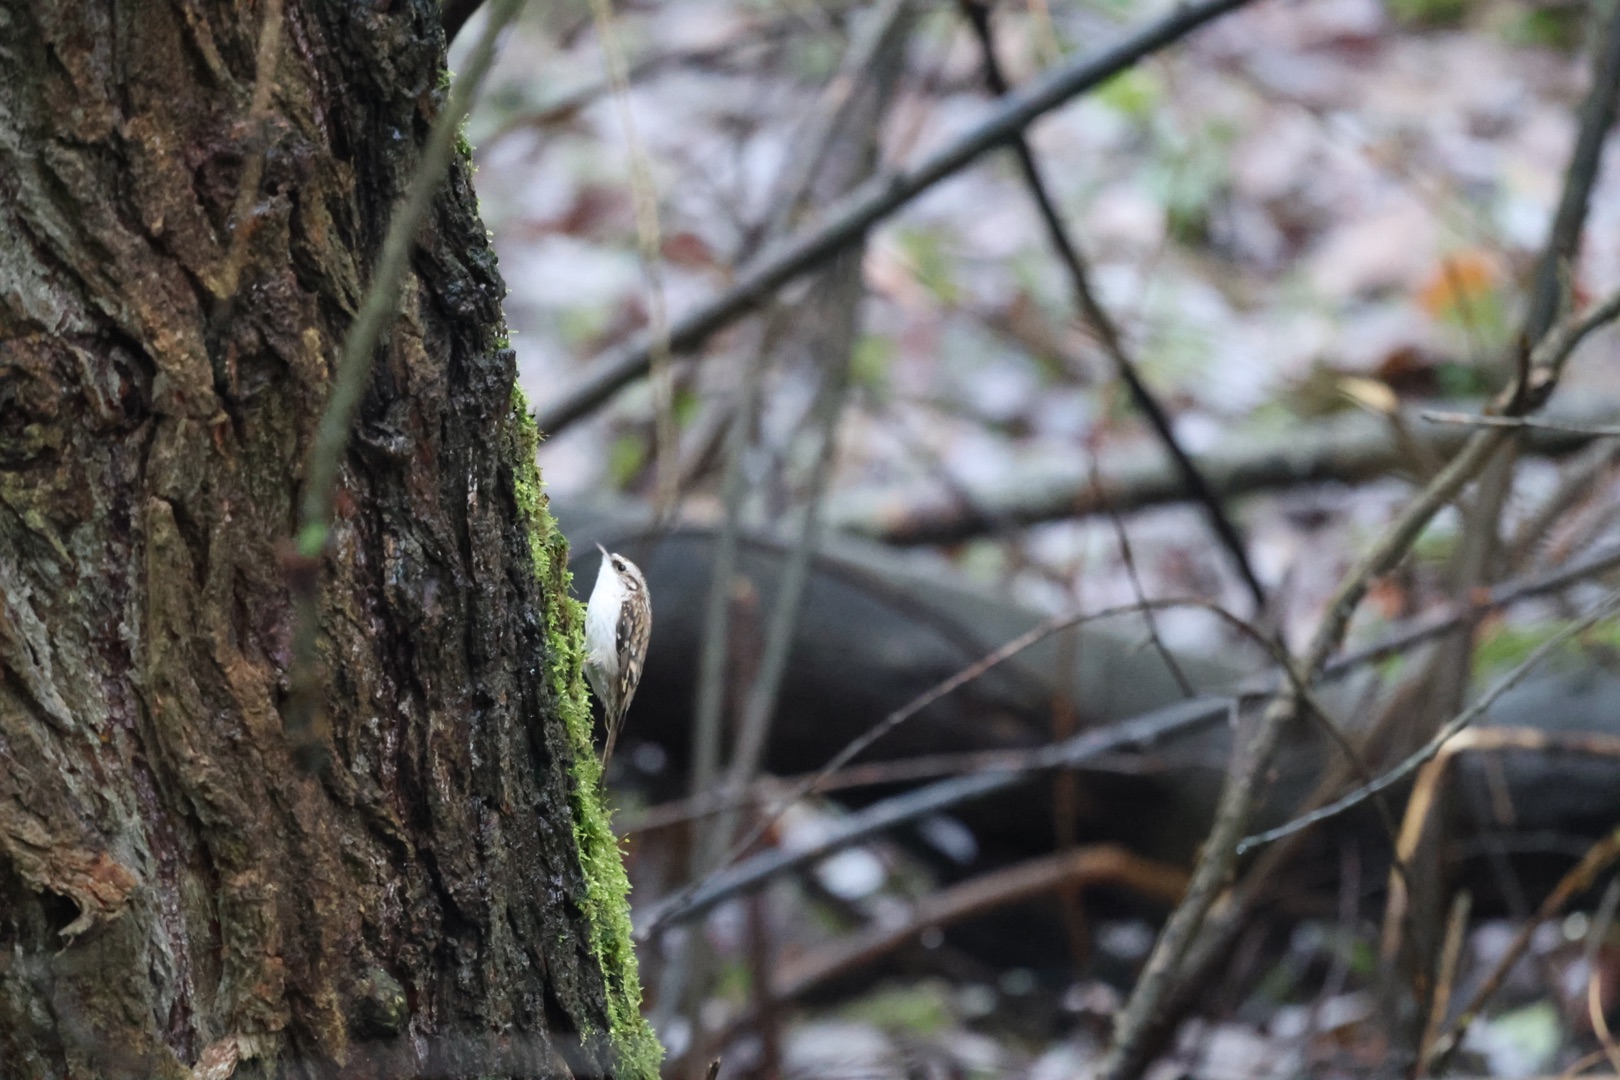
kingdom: Animalia
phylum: Chordata
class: Aves
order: Passeriformes
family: Certhiidae
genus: Certhia
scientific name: Certhia familiaris
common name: Træløber
